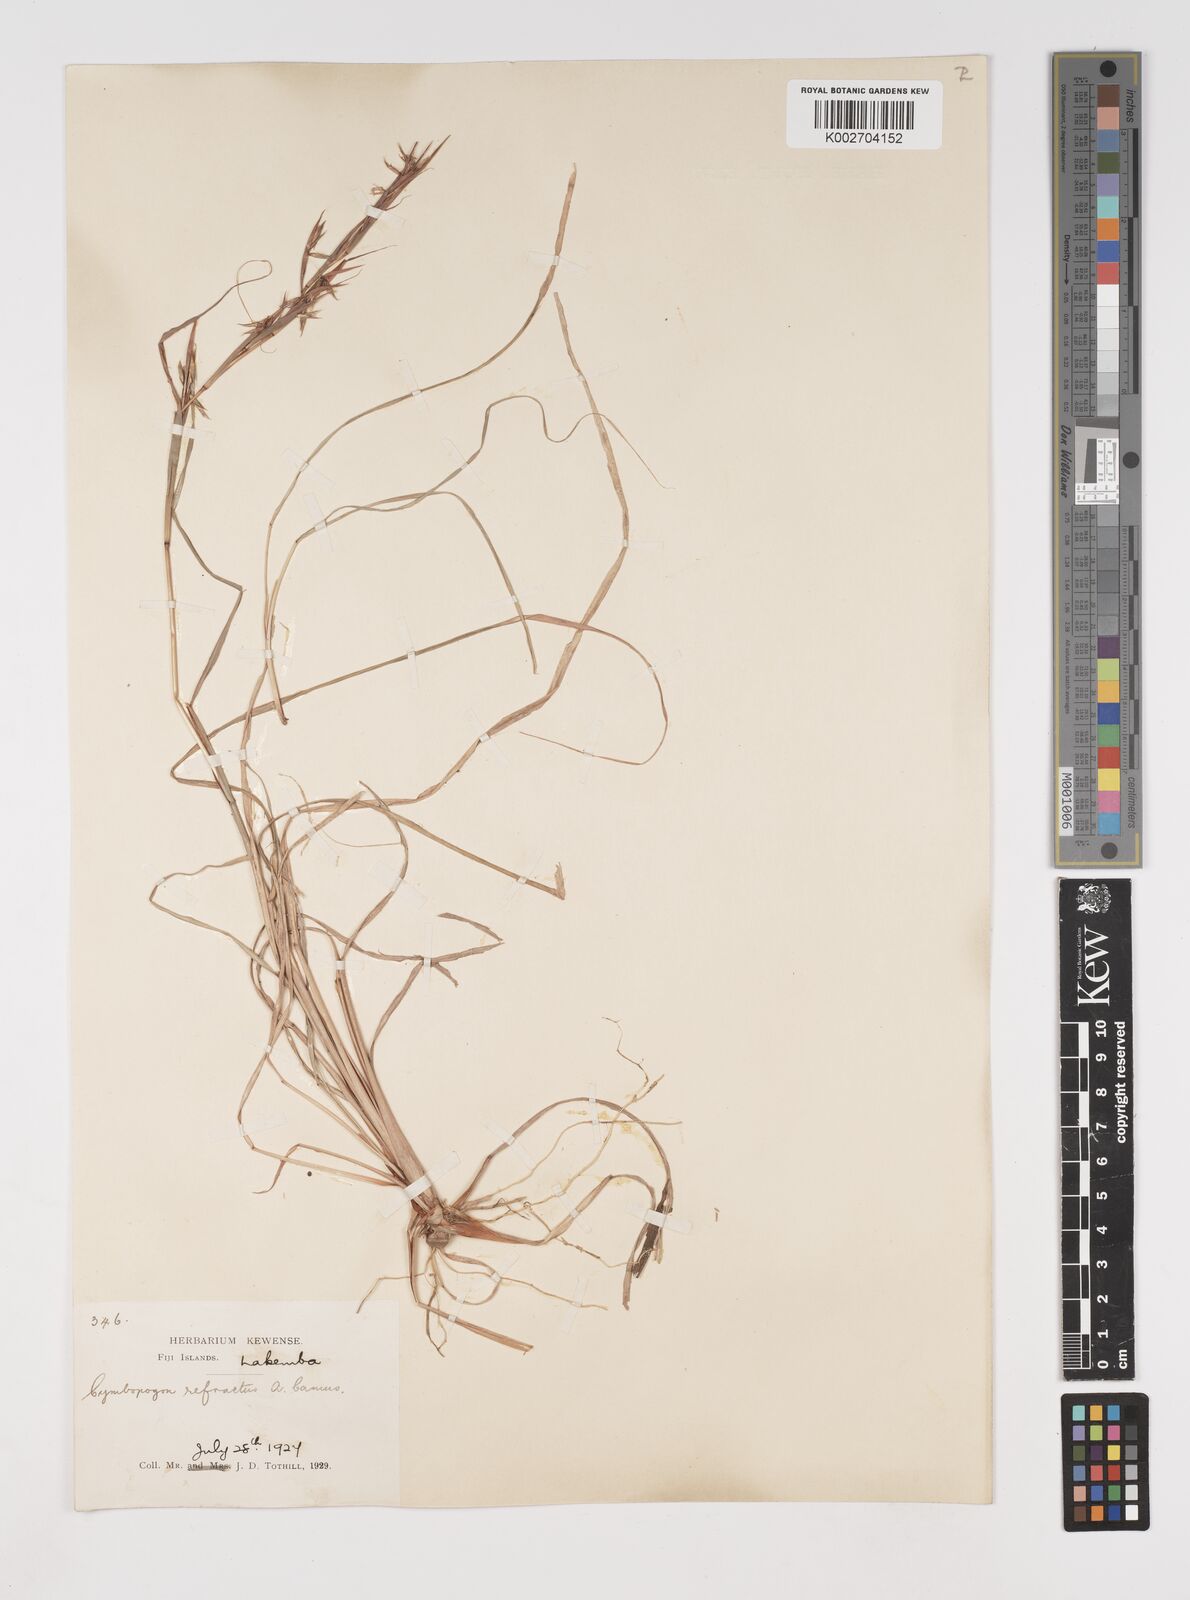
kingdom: Plantae
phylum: Tracheophyta
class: Liliopsida
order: Poales
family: Poaceae
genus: Cymbopogon
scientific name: Cymbopogon refractus
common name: Barbwire grass
